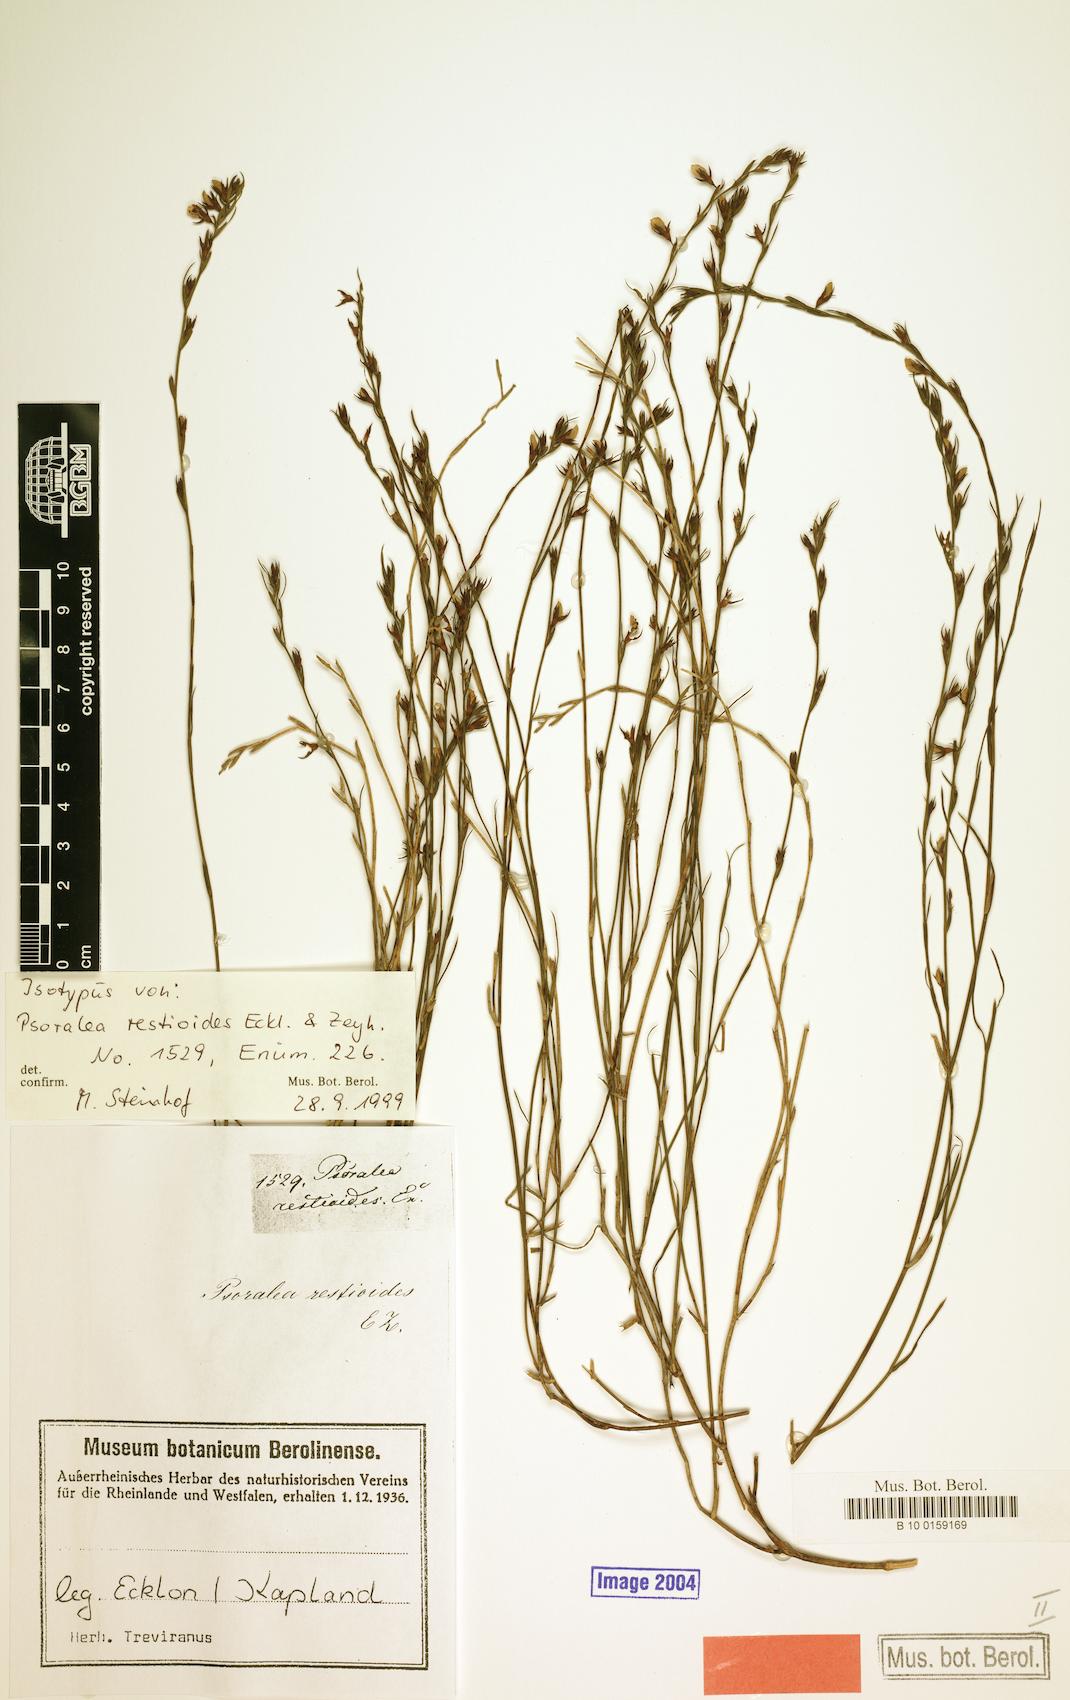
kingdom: Plantae
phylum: Tracheophyta
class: Magnoliopsida
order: Fabales
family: Fabaceae
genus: Psoralea
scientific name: Psoralea restioides
